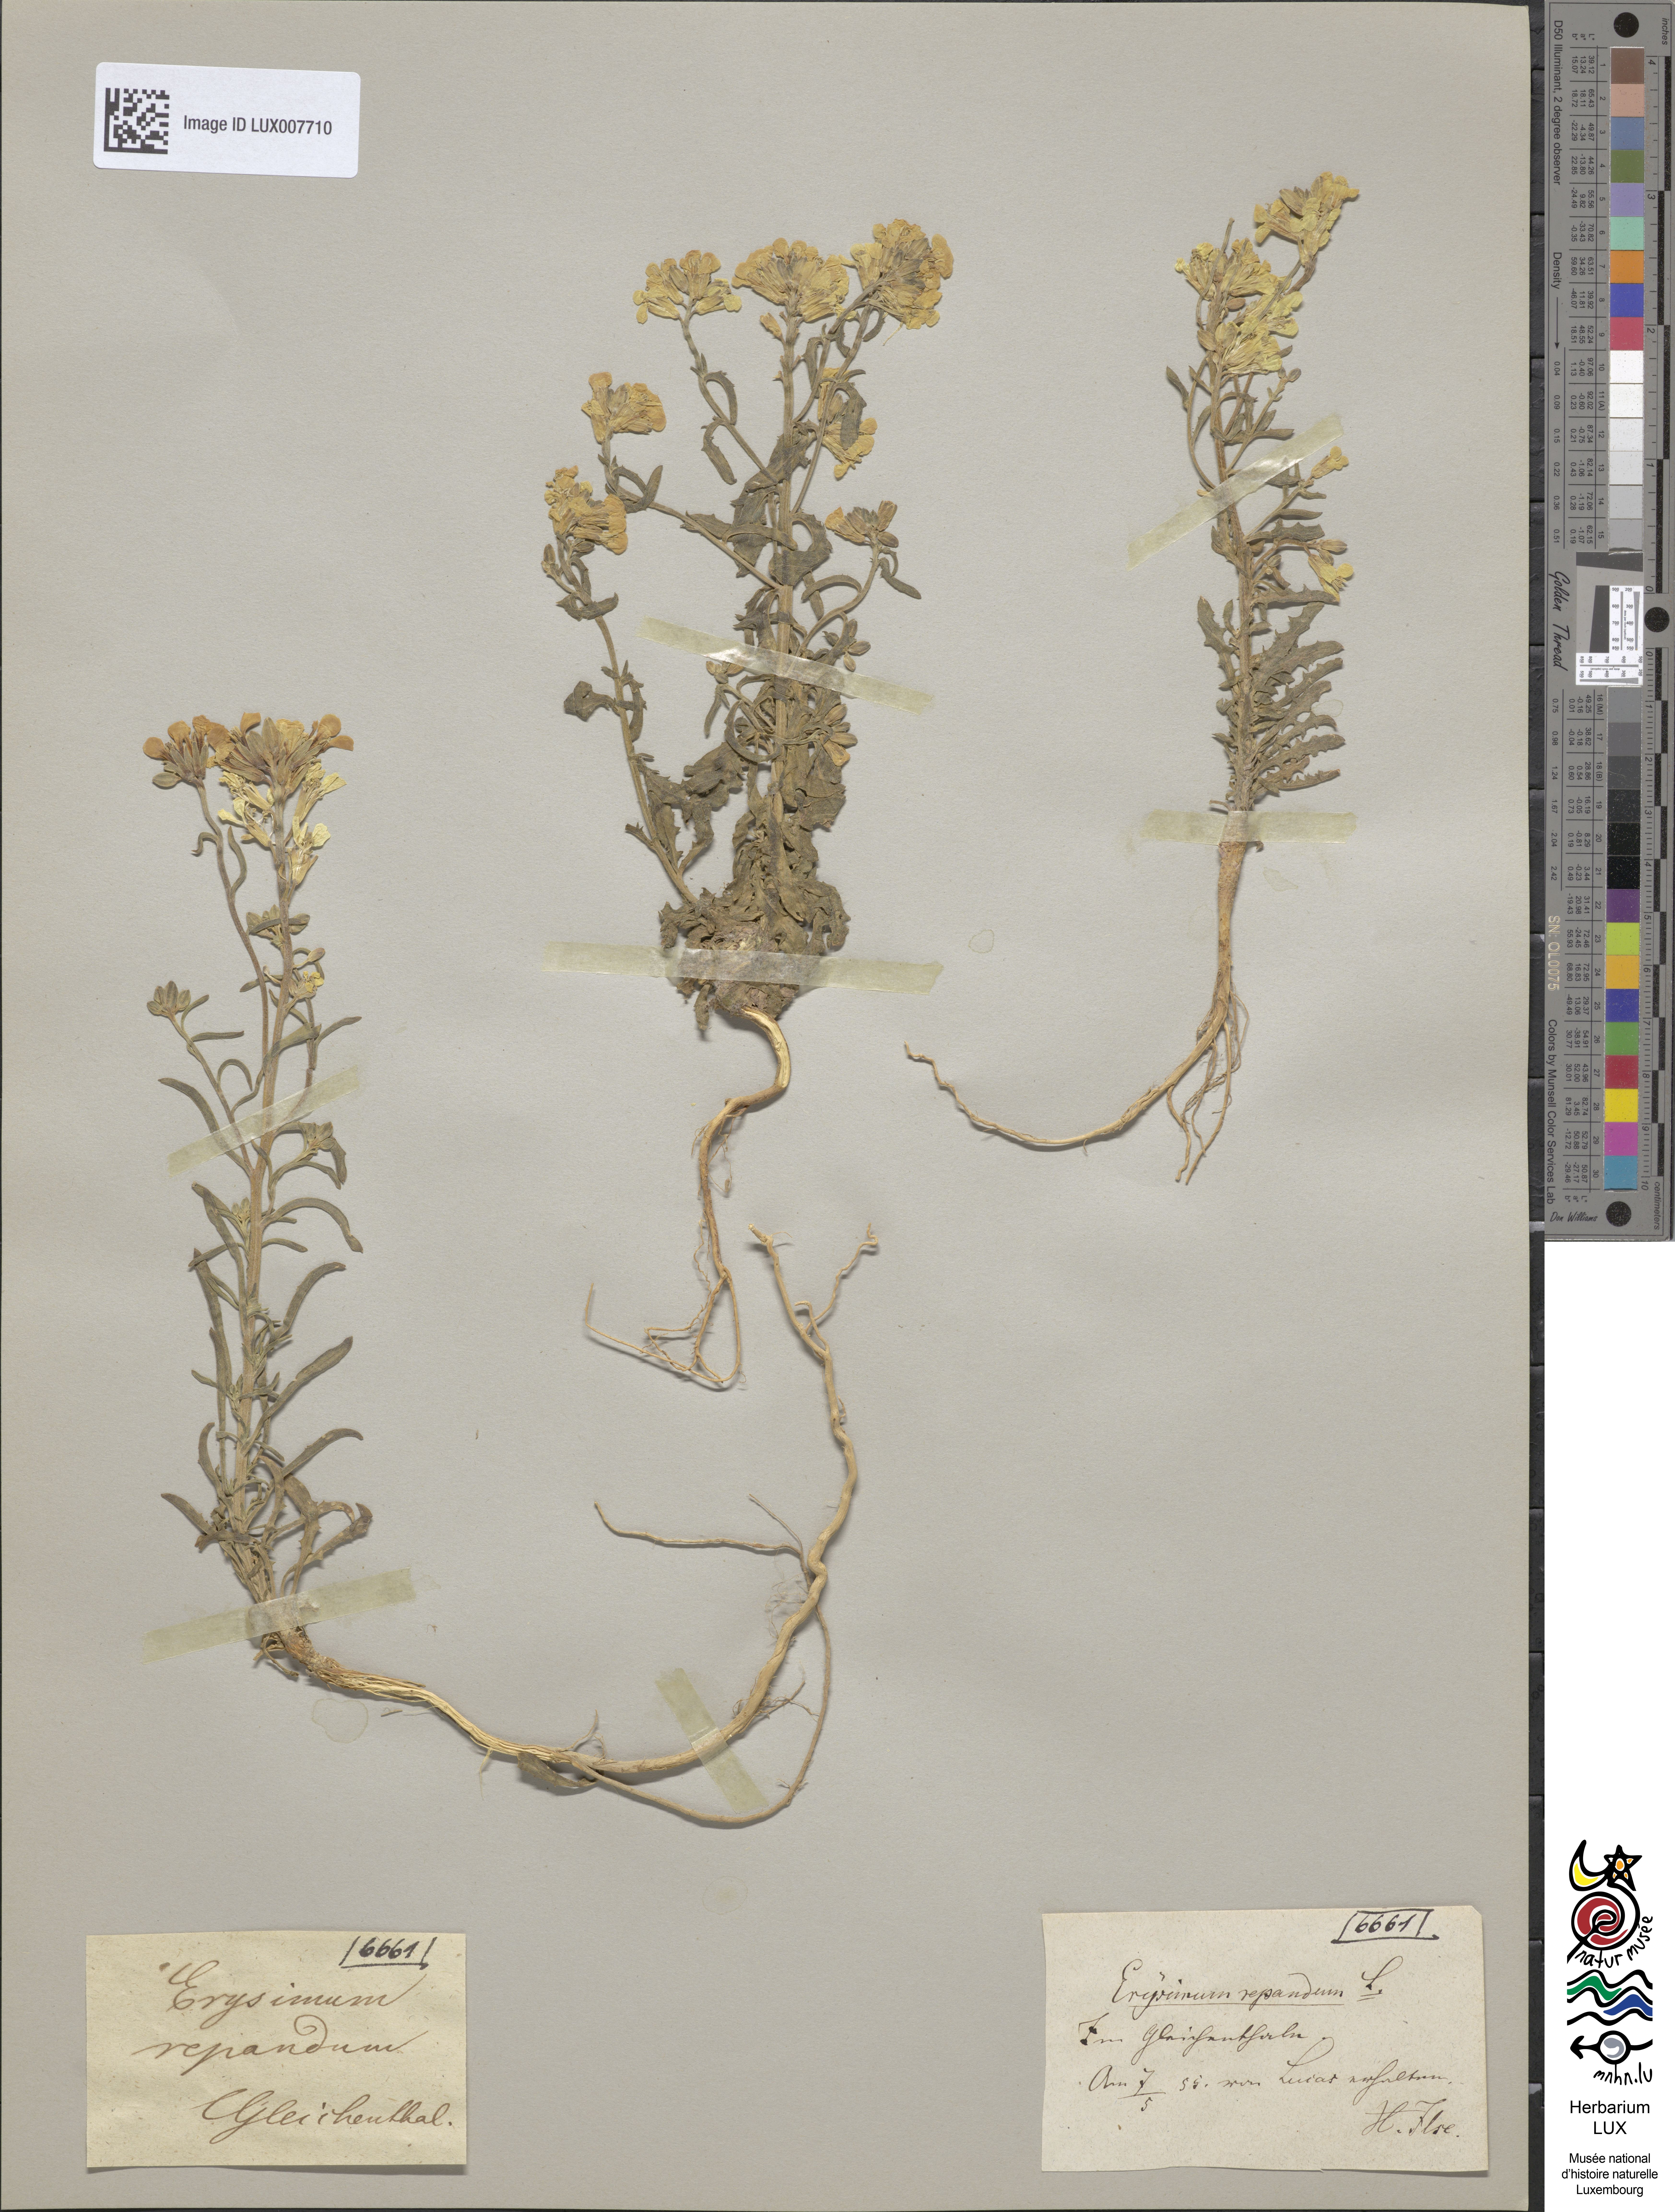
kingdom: Plantae
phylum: Tracheophyta
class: Magnoliopsida
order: Brassicales
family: Brassicaceae
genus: Erysimum
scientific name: Erysimum repandum
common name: Spreading wallflower
